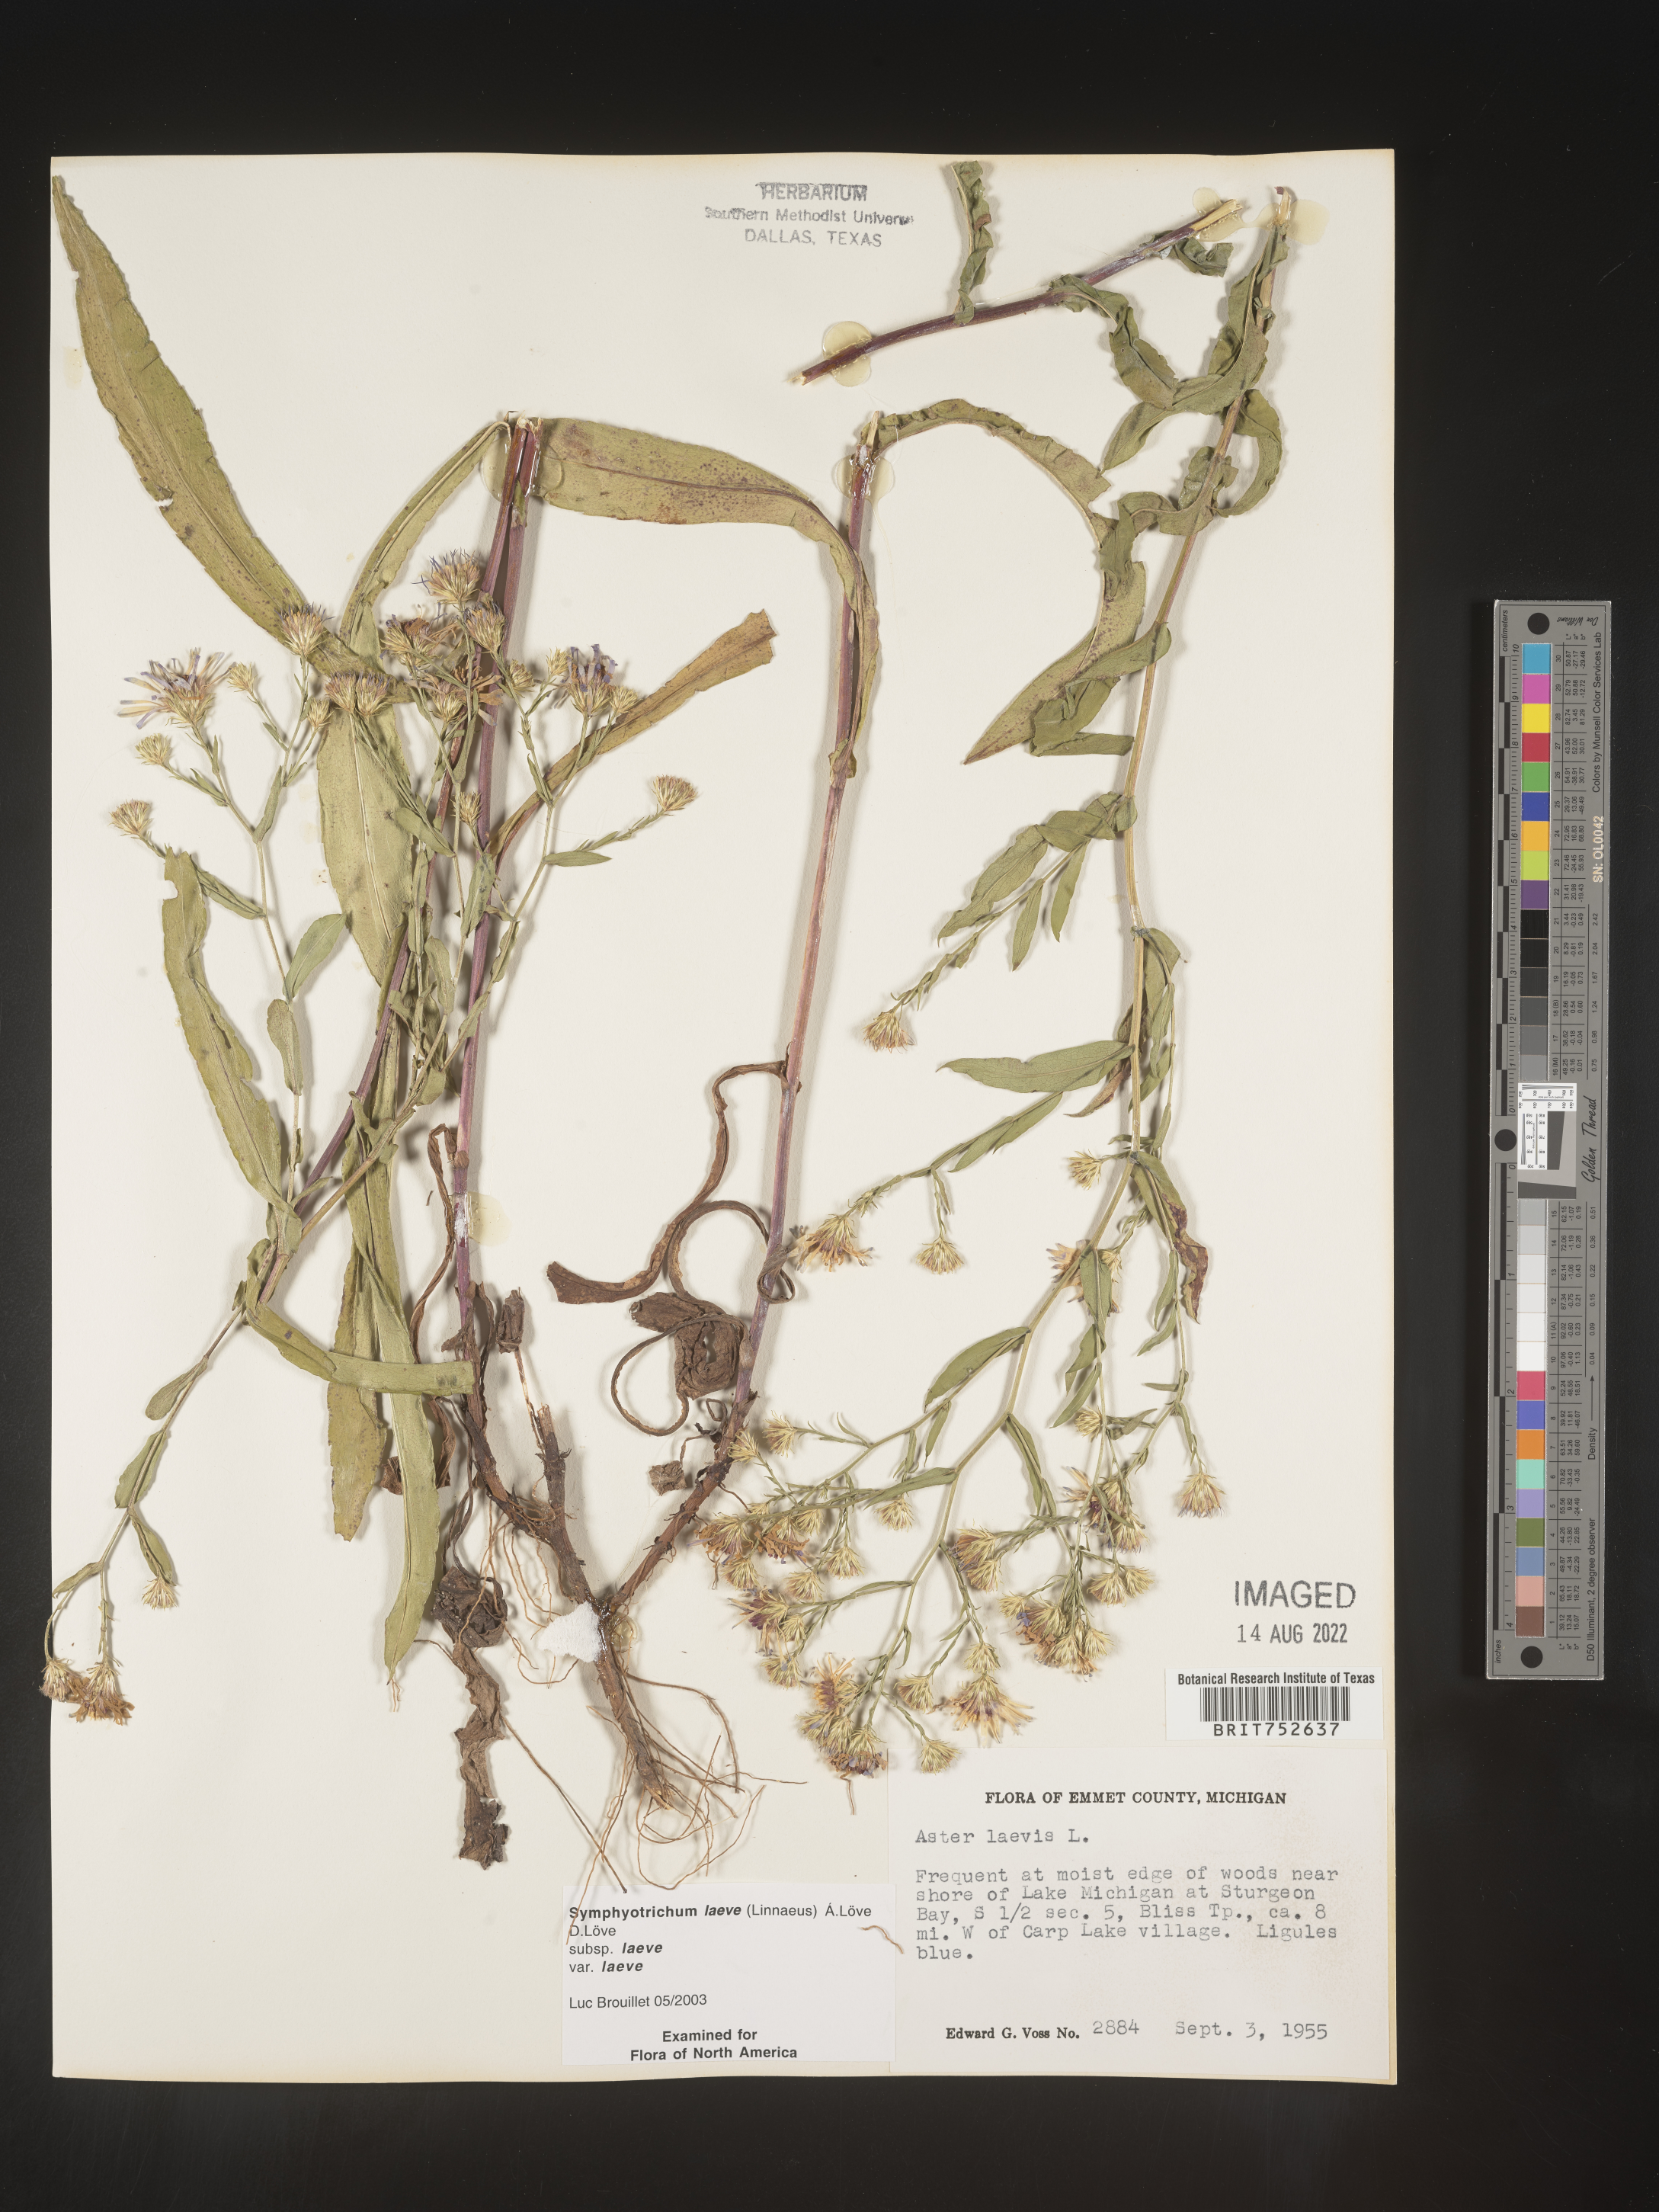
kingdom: Plantae
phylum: Tracheophyta
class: Magnoliopsida
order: Asterales
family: Asteraceae
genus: Symphyotrichum
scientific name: Symphyotrichum laeve
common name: Glaucous aster
